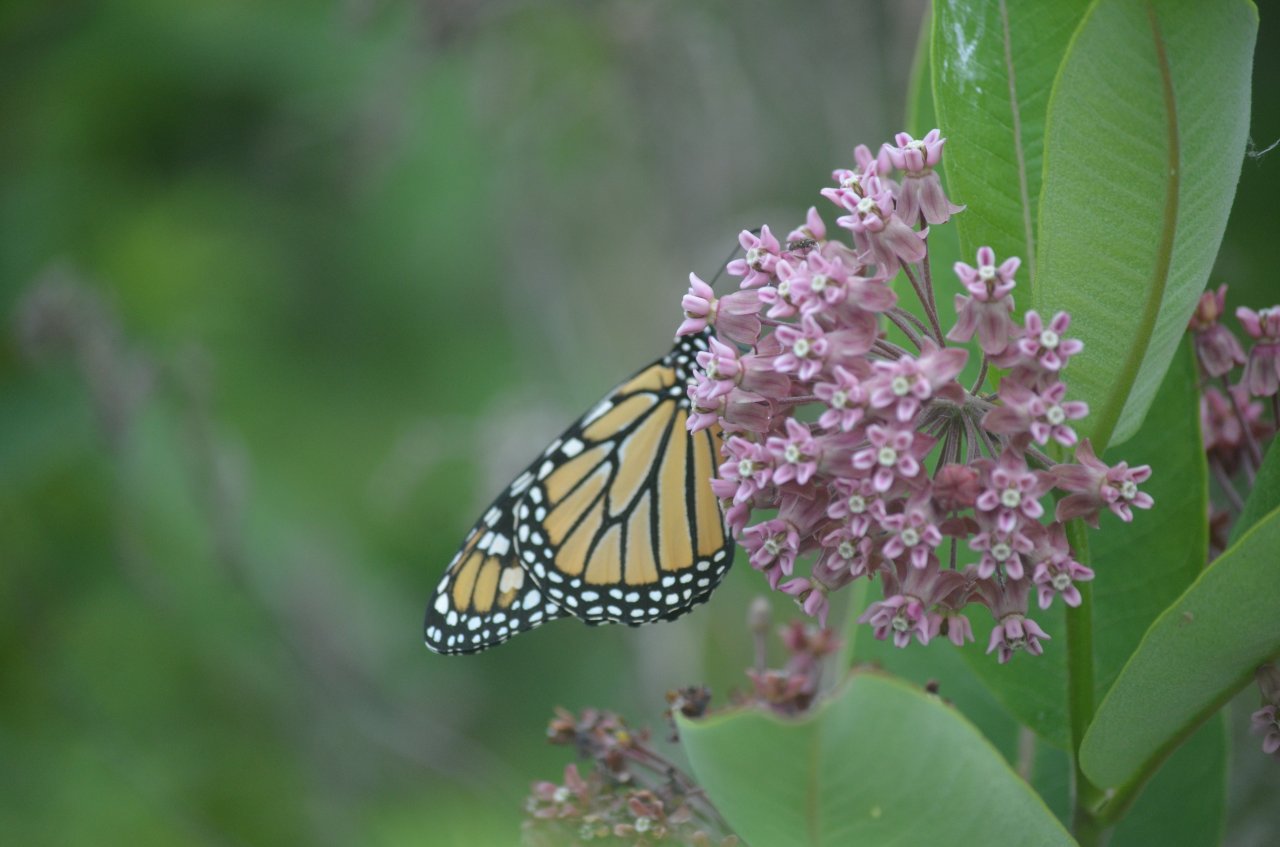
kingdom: Animalia
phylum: Arthropoda
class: Insecta
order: Lepidoptera
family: Nymphalidae
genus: Danaus
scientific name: Danaus plexippus
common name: Monarch
